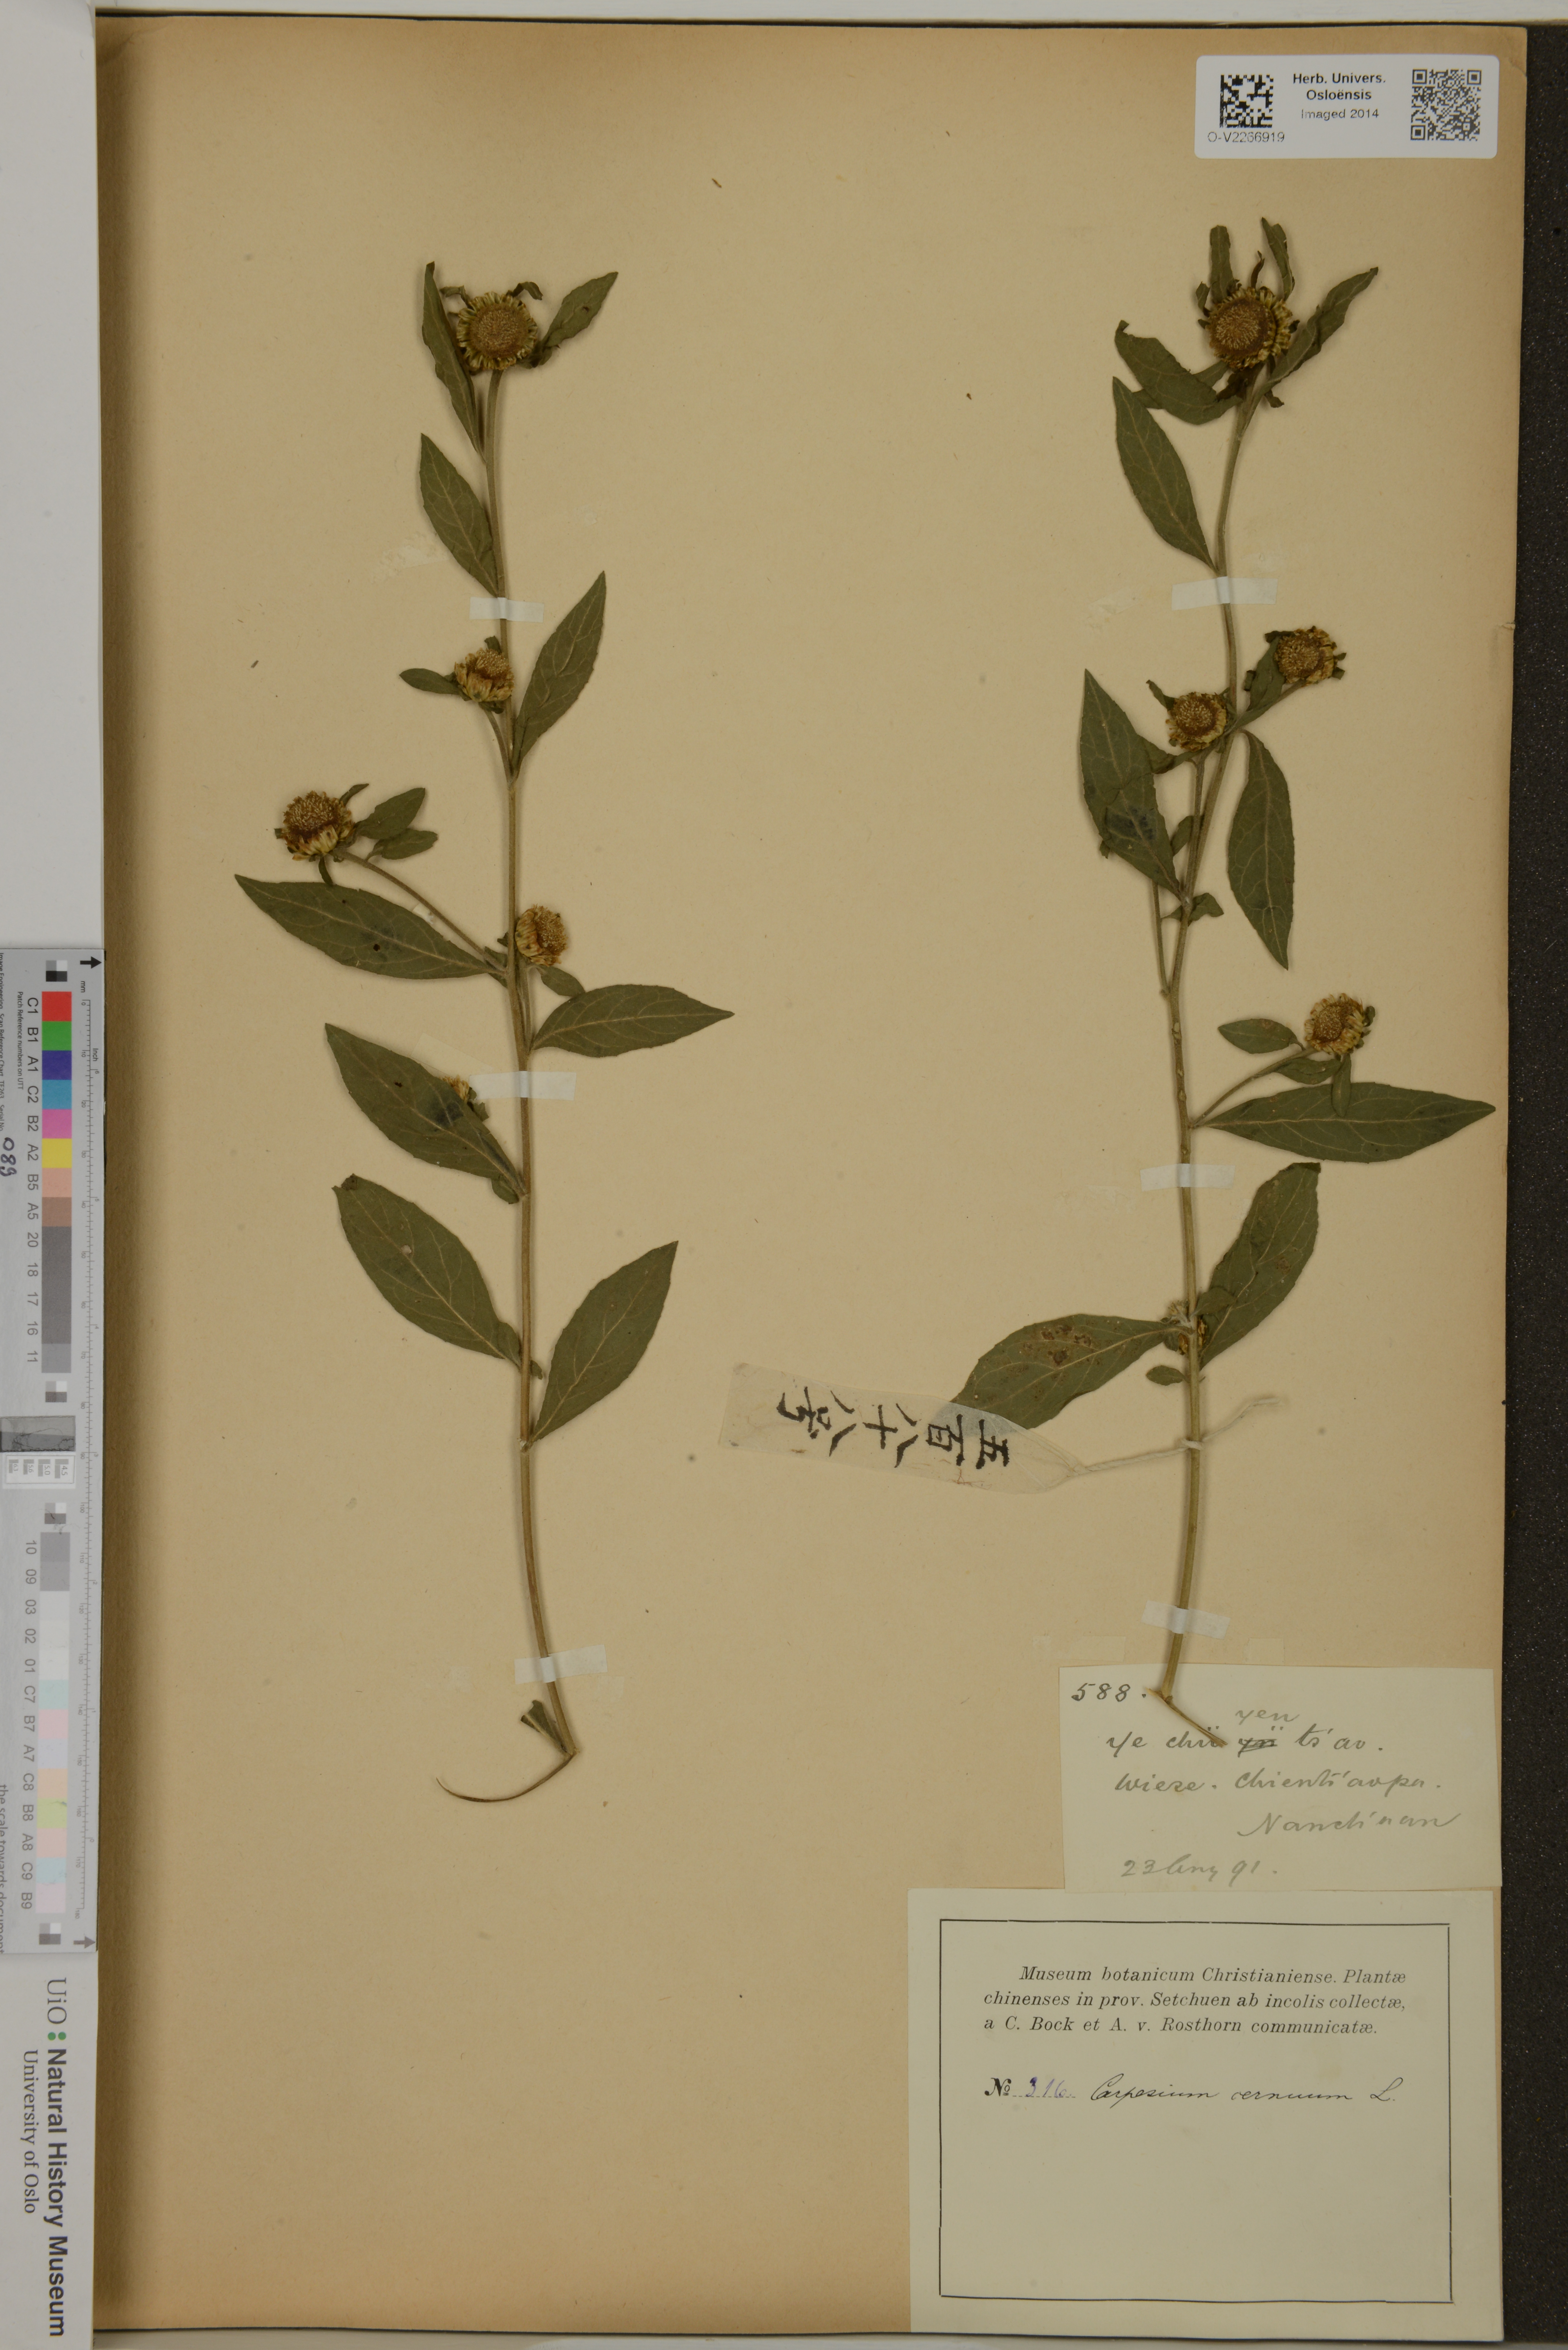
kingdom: Plantae
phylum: Tracheophyta
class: Magnoliopsida
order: Asterales
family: Asteraceae
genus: Carpesium
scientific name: Carpesium cernuum
